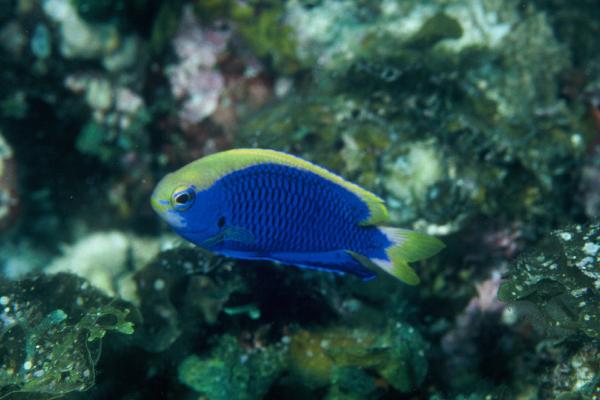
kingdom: Animalia
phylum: Chordata
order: Perciformes
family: Pomacentridae
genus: Chrysiptera
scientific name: Chrysiptera starcki
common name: Damselfish
